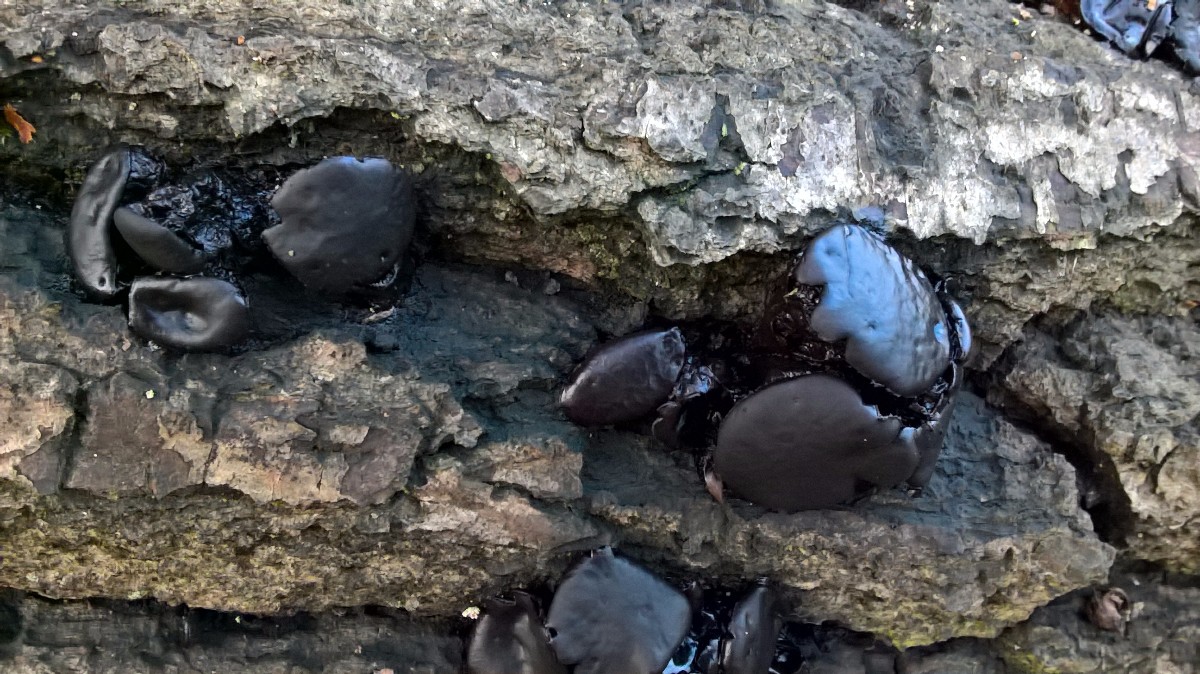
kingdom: Fungi
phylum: Basidiomycota
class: Agaricomycetes
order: Auriculariales
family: Auriculariaceae
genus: Exidia
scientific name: Exidia glandulosa
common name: ege-bævretop
